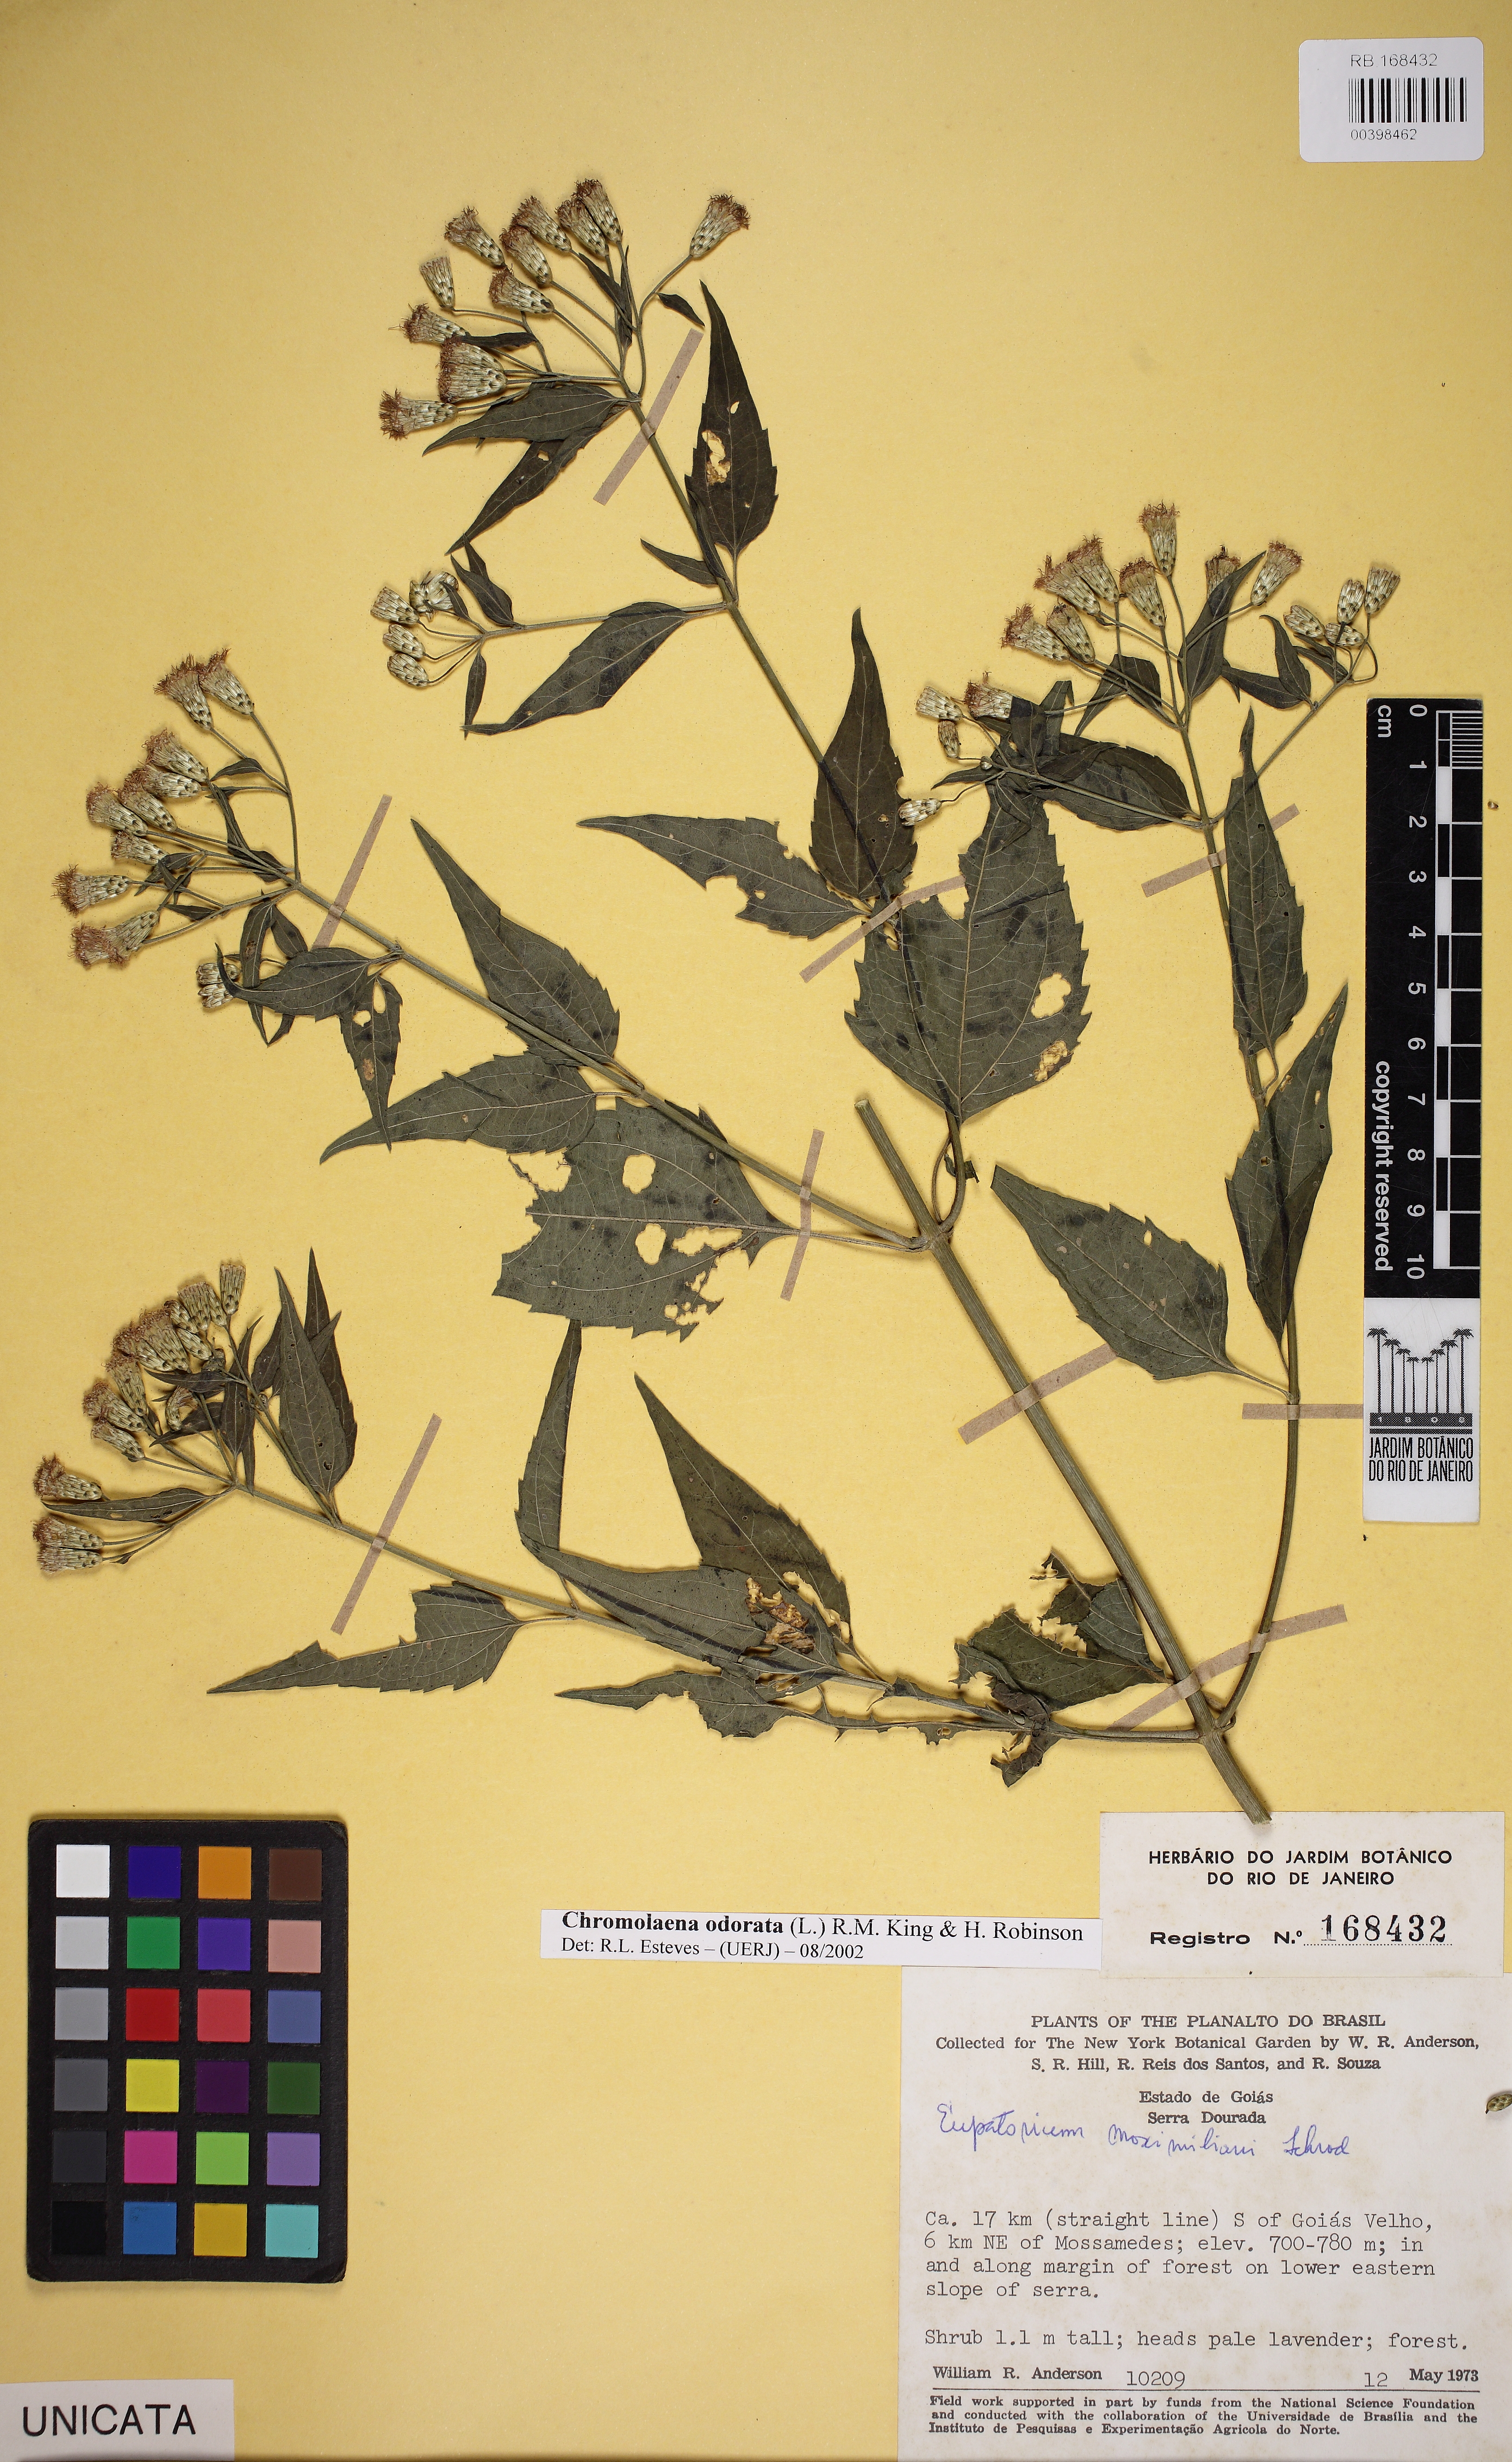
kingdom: Plantae
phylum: Tracheophyta
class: Magnoliopsida
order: Asterales
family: Asteraceae
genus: Chromolaena
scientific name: Chromolaena odorata
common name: Siamweed
